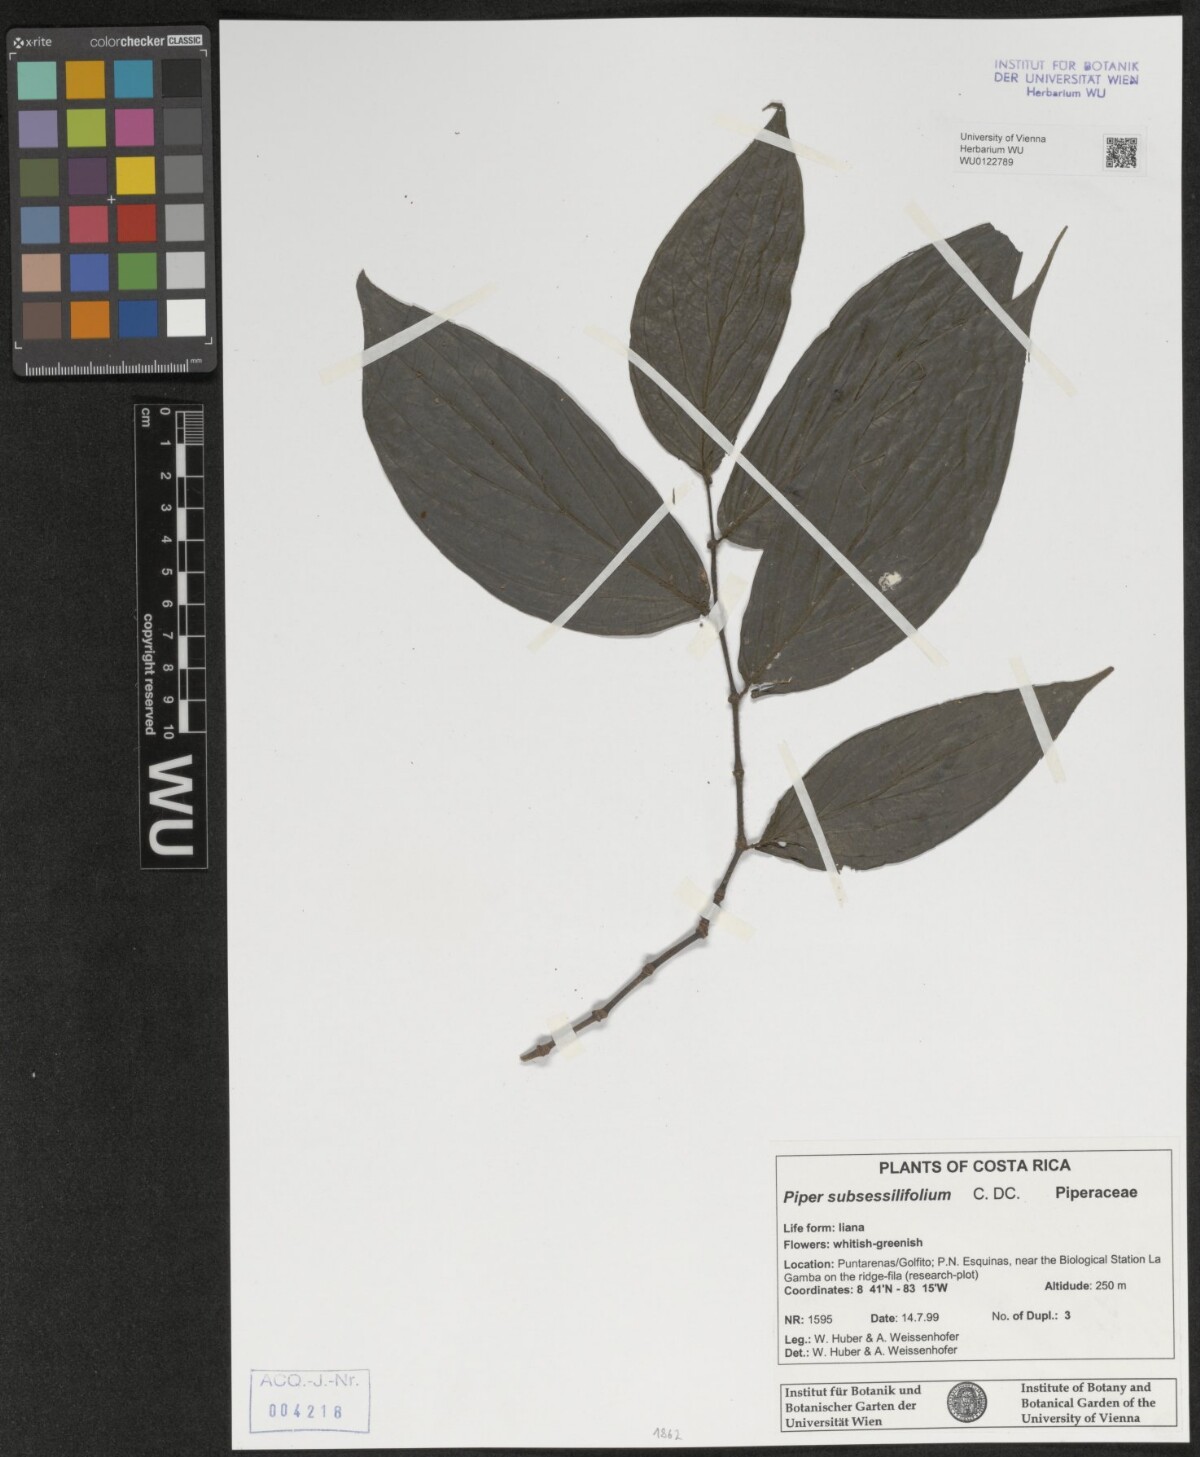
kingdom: Plantae
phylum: Tracheophyta
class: Magnoliopsida
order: Piperales
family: Piperaceae
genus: Piper
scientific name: Piper subsessilifolium
